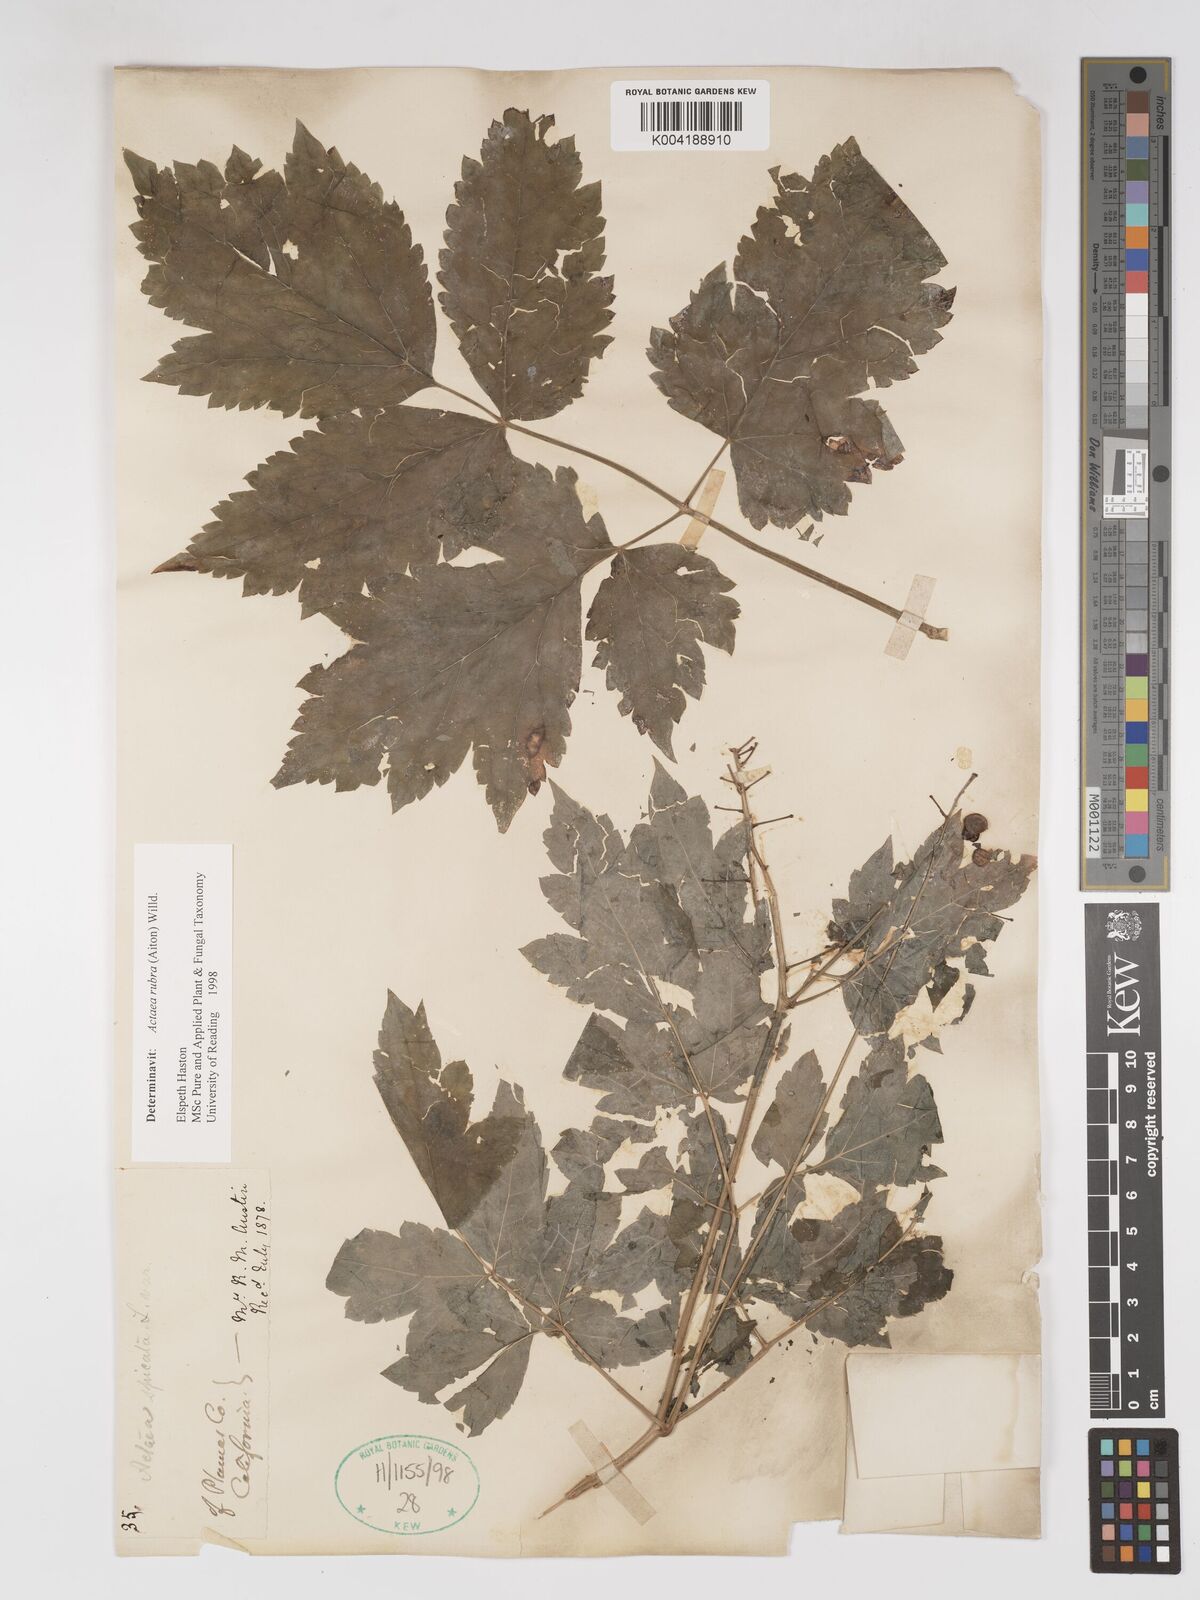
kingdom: Plantae
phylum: Tracheophyta
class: Magnoliopsida
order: Ranunculales
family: Ranunculaceae
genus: Actaea
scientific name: Actaea rubra
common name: Red baneberry
